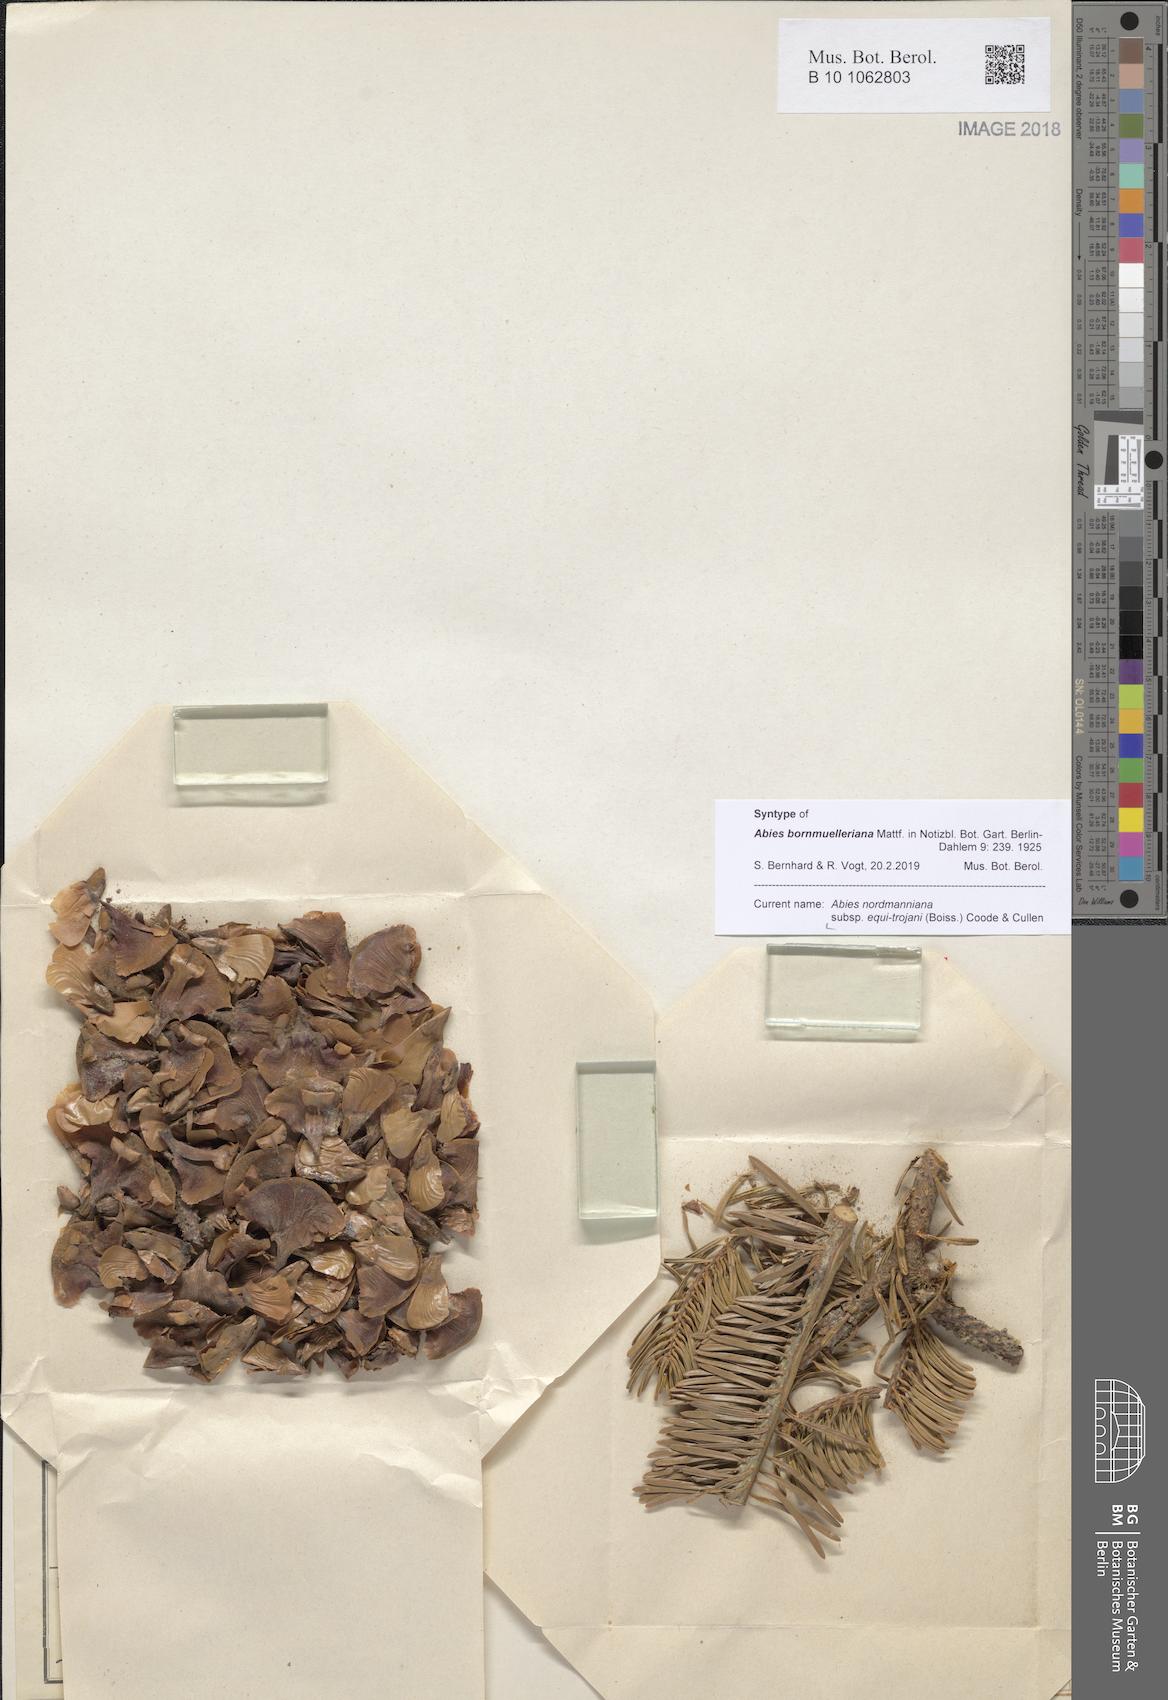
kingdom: Plantae
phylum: Tracheophyta
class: Pinopsida
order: Pinales
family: Pinaceae
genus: Abies
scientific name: Abies nordmanniana
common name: Caucasian fir
